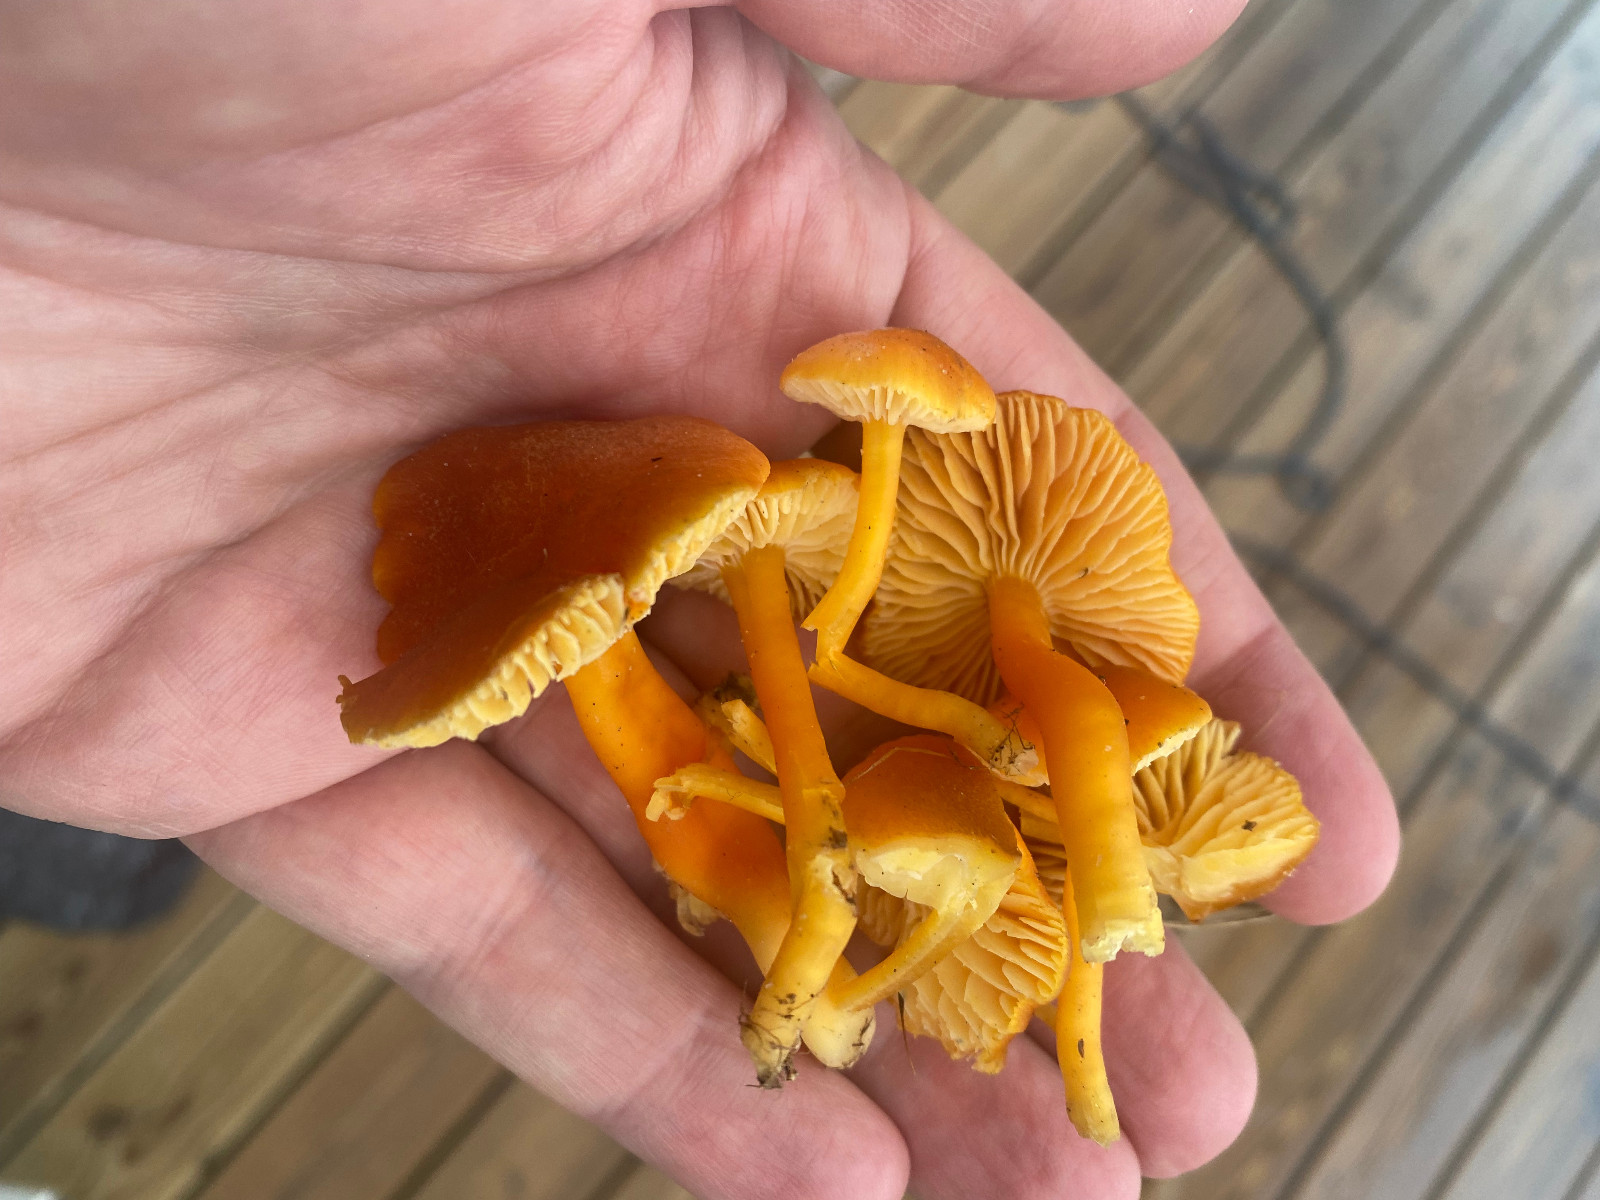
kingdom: Fungi
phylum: Basidiomycota
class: Agaricomycetes
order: Agaricales
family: Hygrophoraceae
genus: Hygrocybe
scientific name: Hygrocybe miniata
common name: mønje-vokshat
